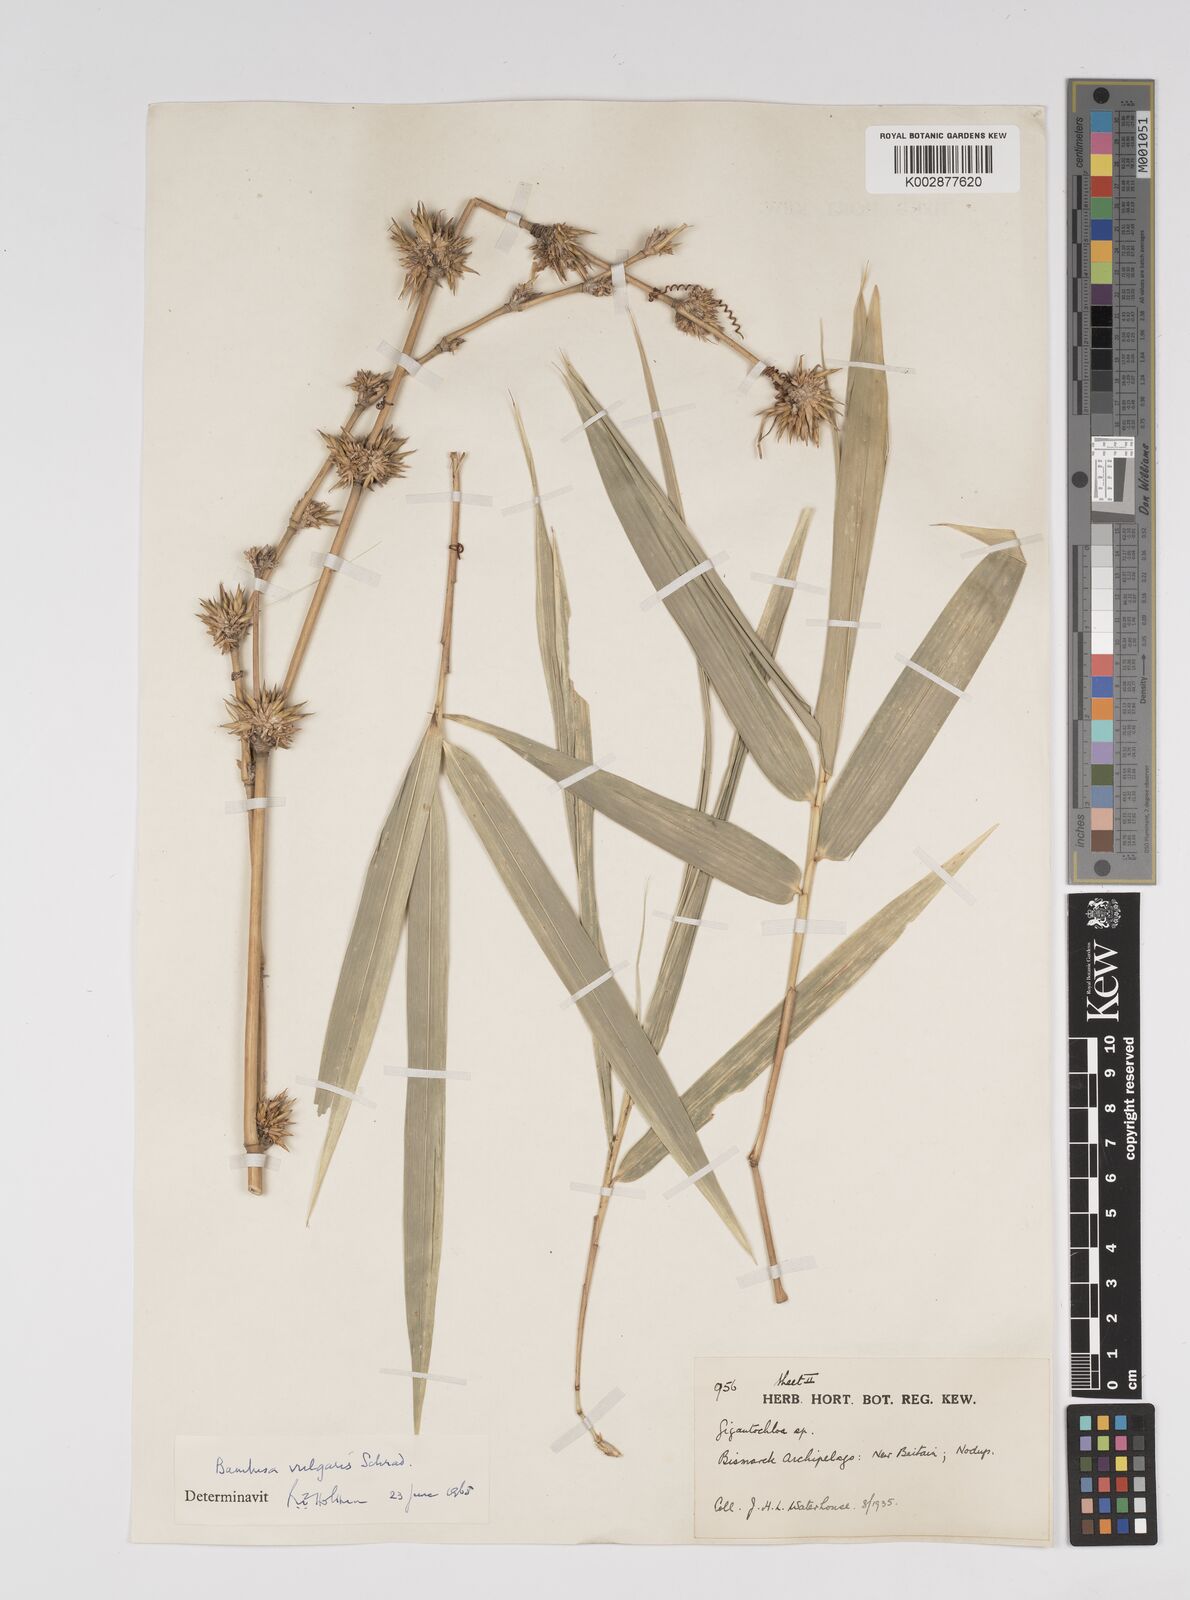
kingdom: Plantae
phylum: Tracheophyta
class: Liliopsida
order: Poales
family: Poaceae
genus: Bambusa
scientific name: Bambusa balcooa
